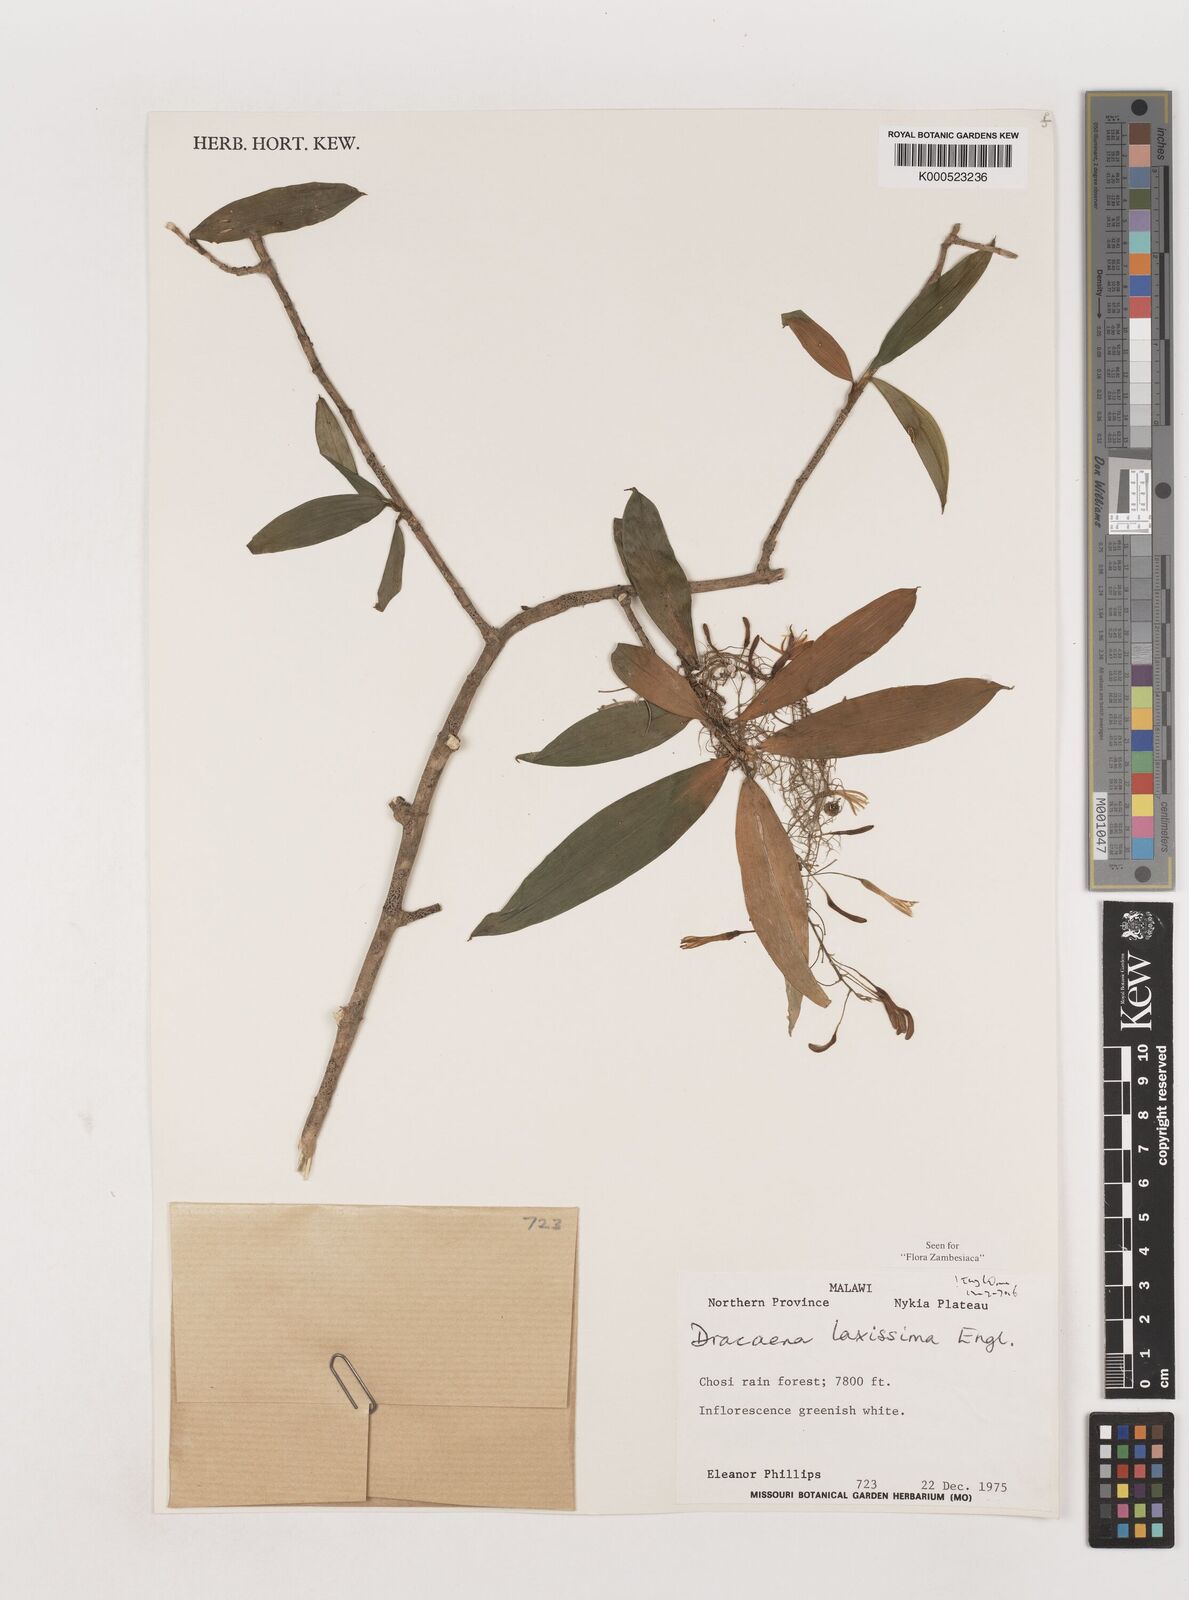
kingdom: Plantae
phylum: Tracheophyta
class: Liliopsida
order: Asparagales
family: Asparagaceae
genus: Dracaena
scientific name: Dracaena laxissima
